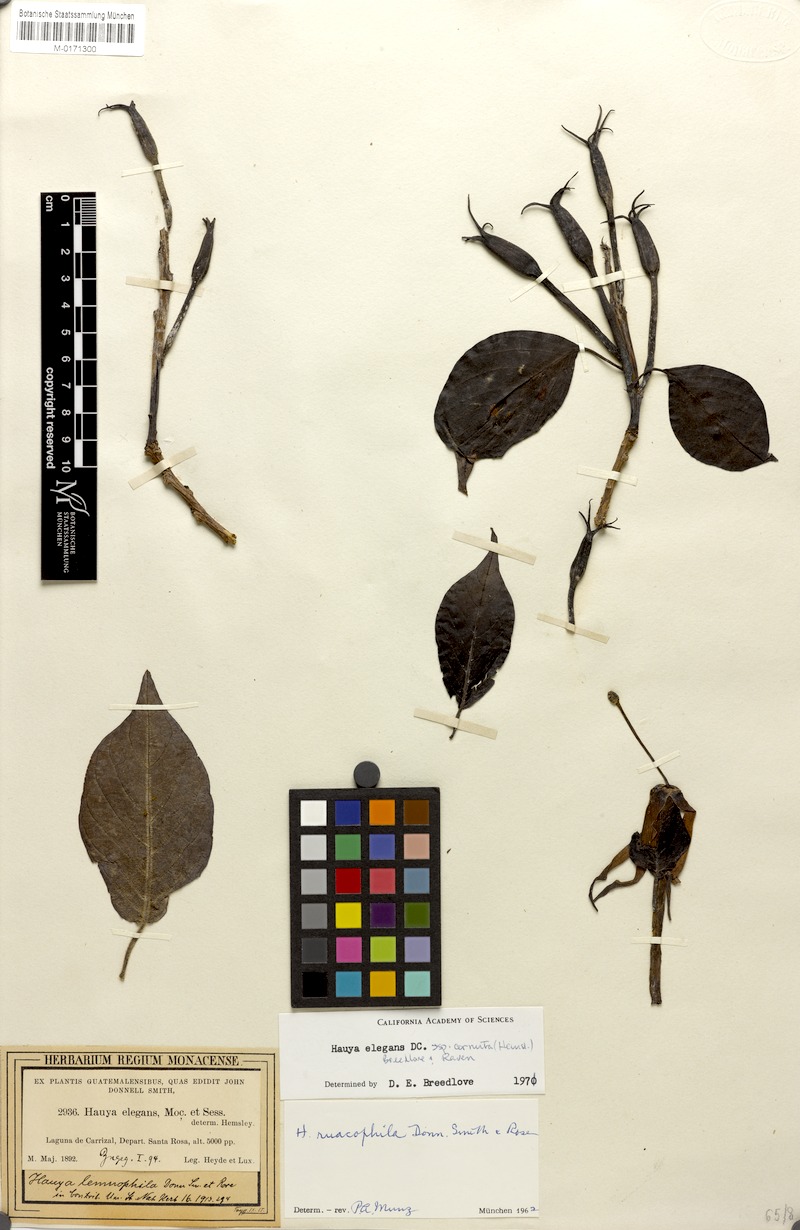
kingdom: Plantae
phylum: Tracheophyta
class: Magnoliopsida
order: Myrtales
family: Onagraceae
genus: Hauya
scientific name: Hauya elegans
